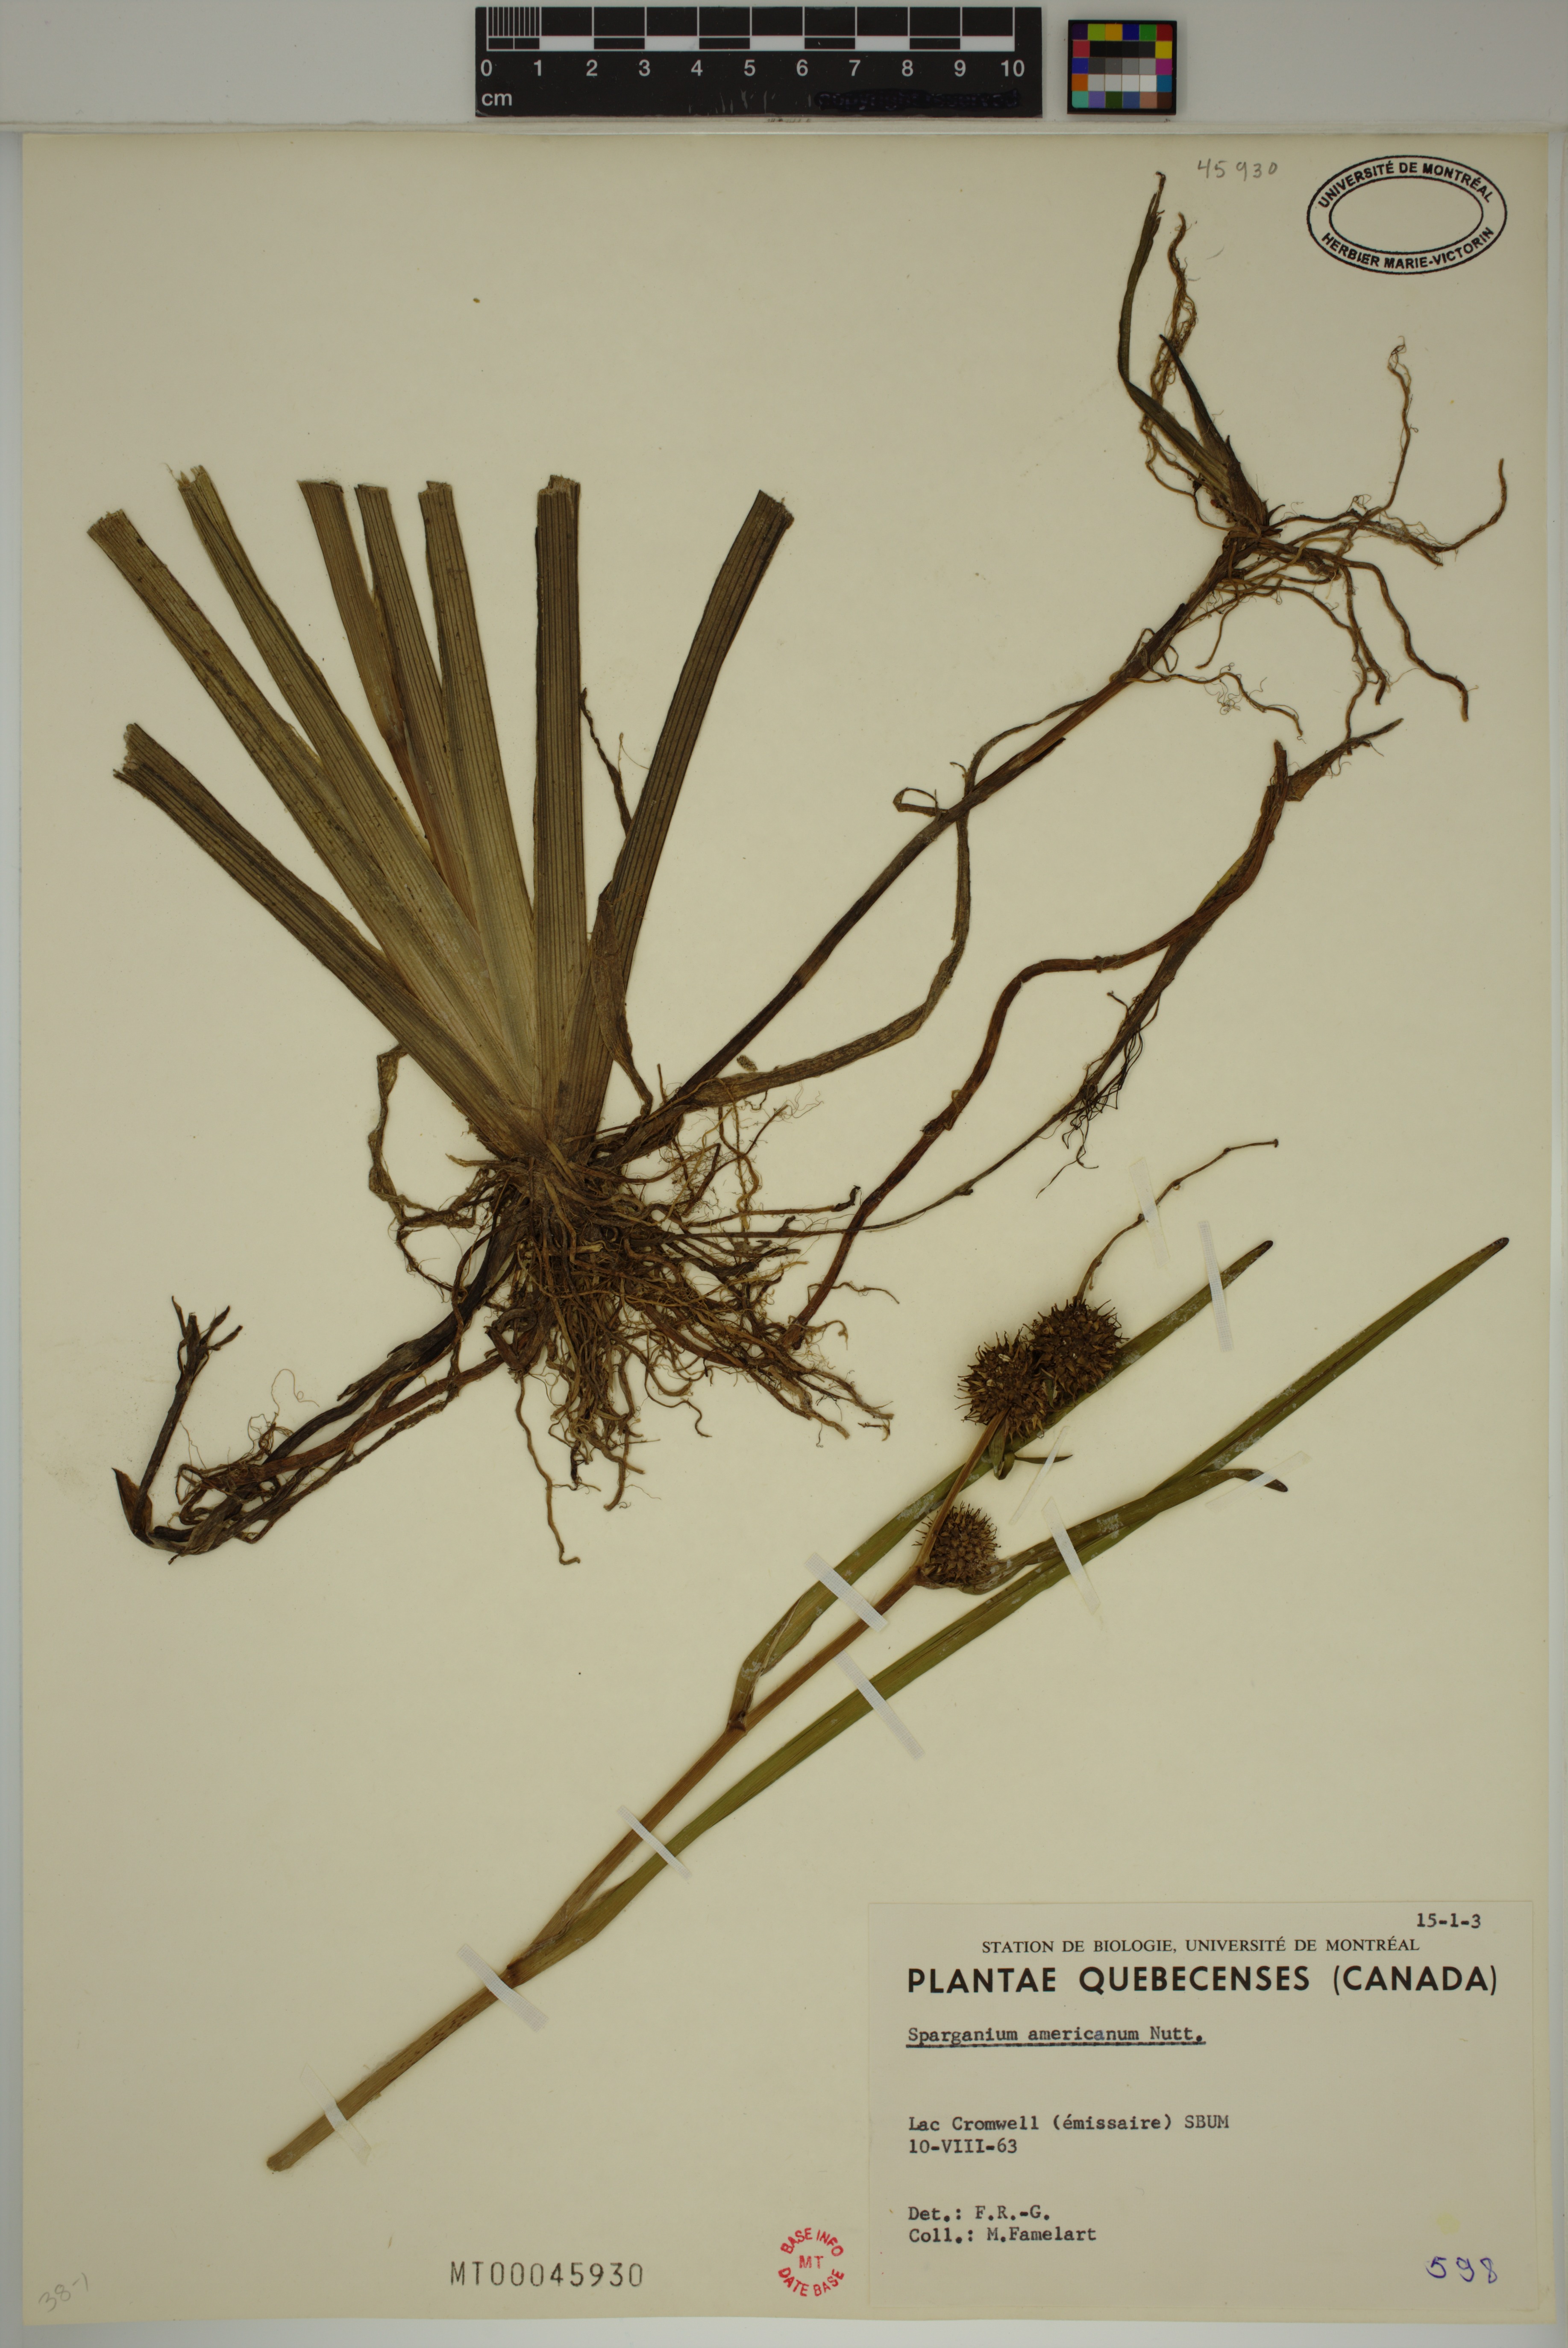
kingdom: Plantae
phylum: Tracheophyta
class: Liliopsida
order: Poales
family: Typhaceae
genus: Sparganium
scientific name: Sparganium americanum
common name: American burreed
